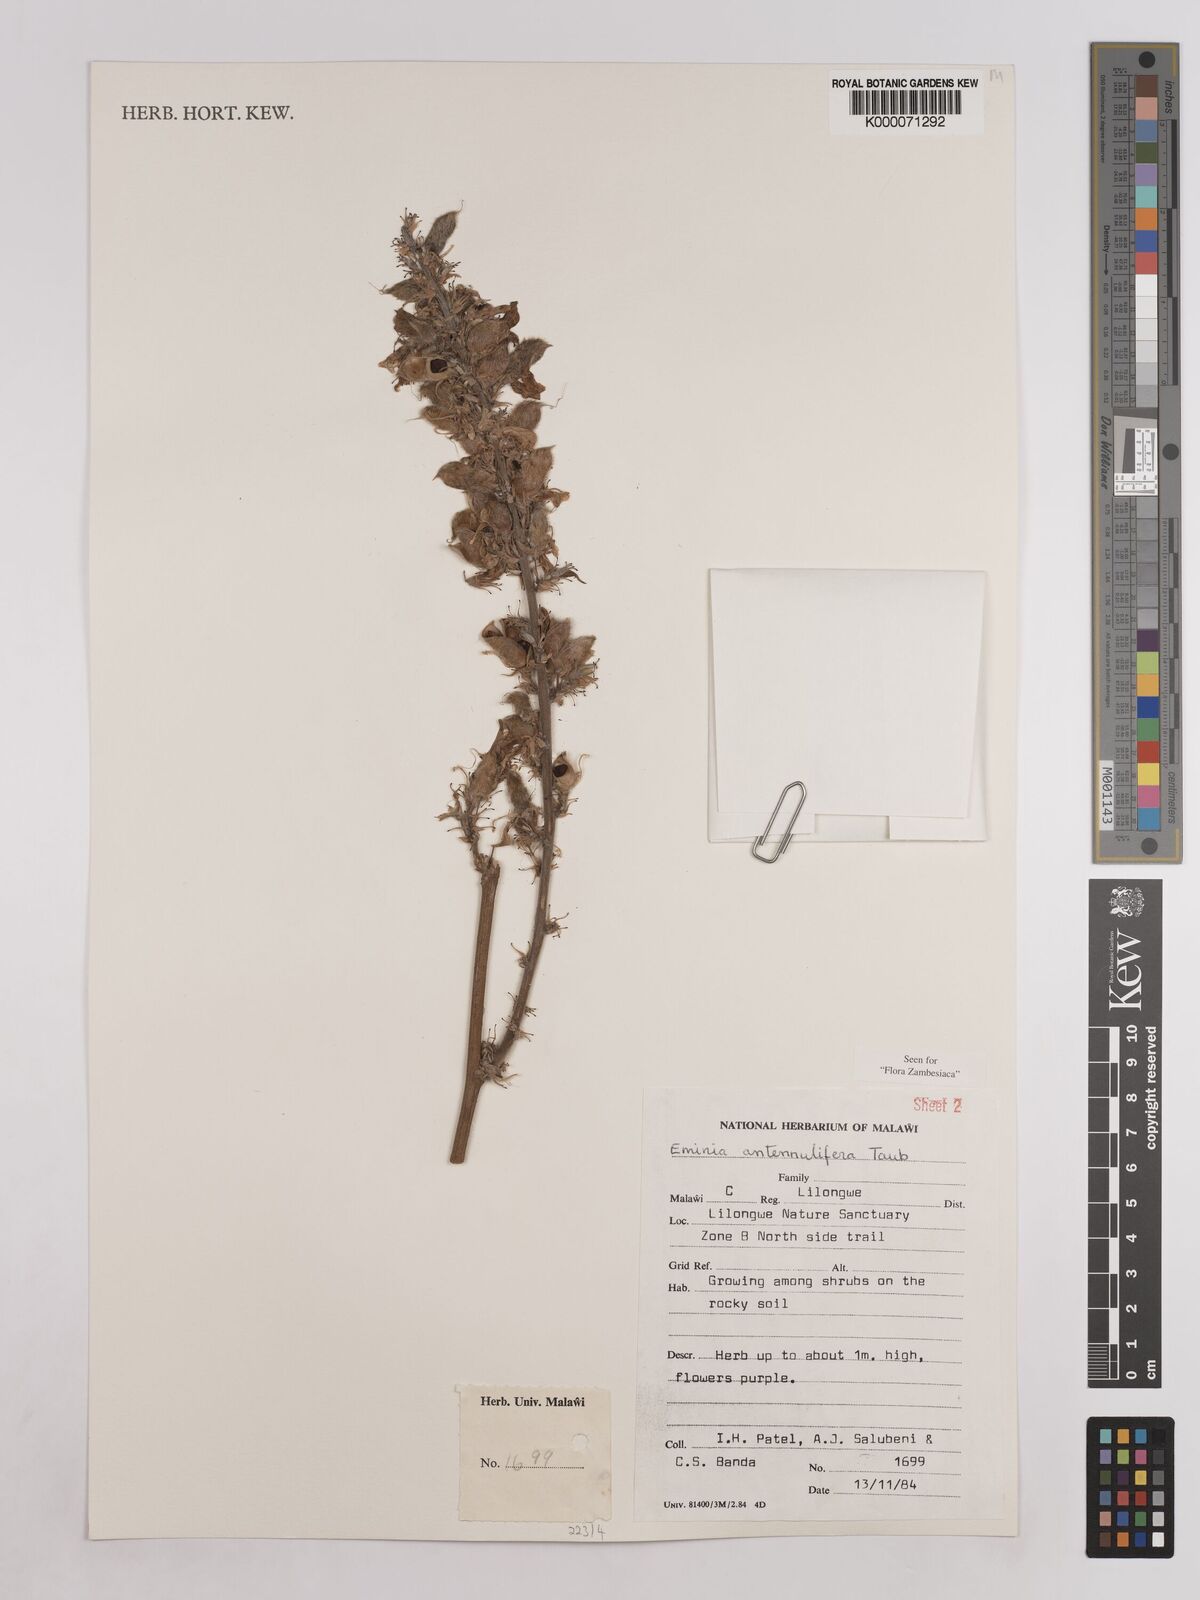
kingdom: Plantae
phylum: Tracheophyta
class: Magnoliopsida
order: Fabales
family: Fabaceae
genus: Eminia
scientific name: Eminia antennulifera
